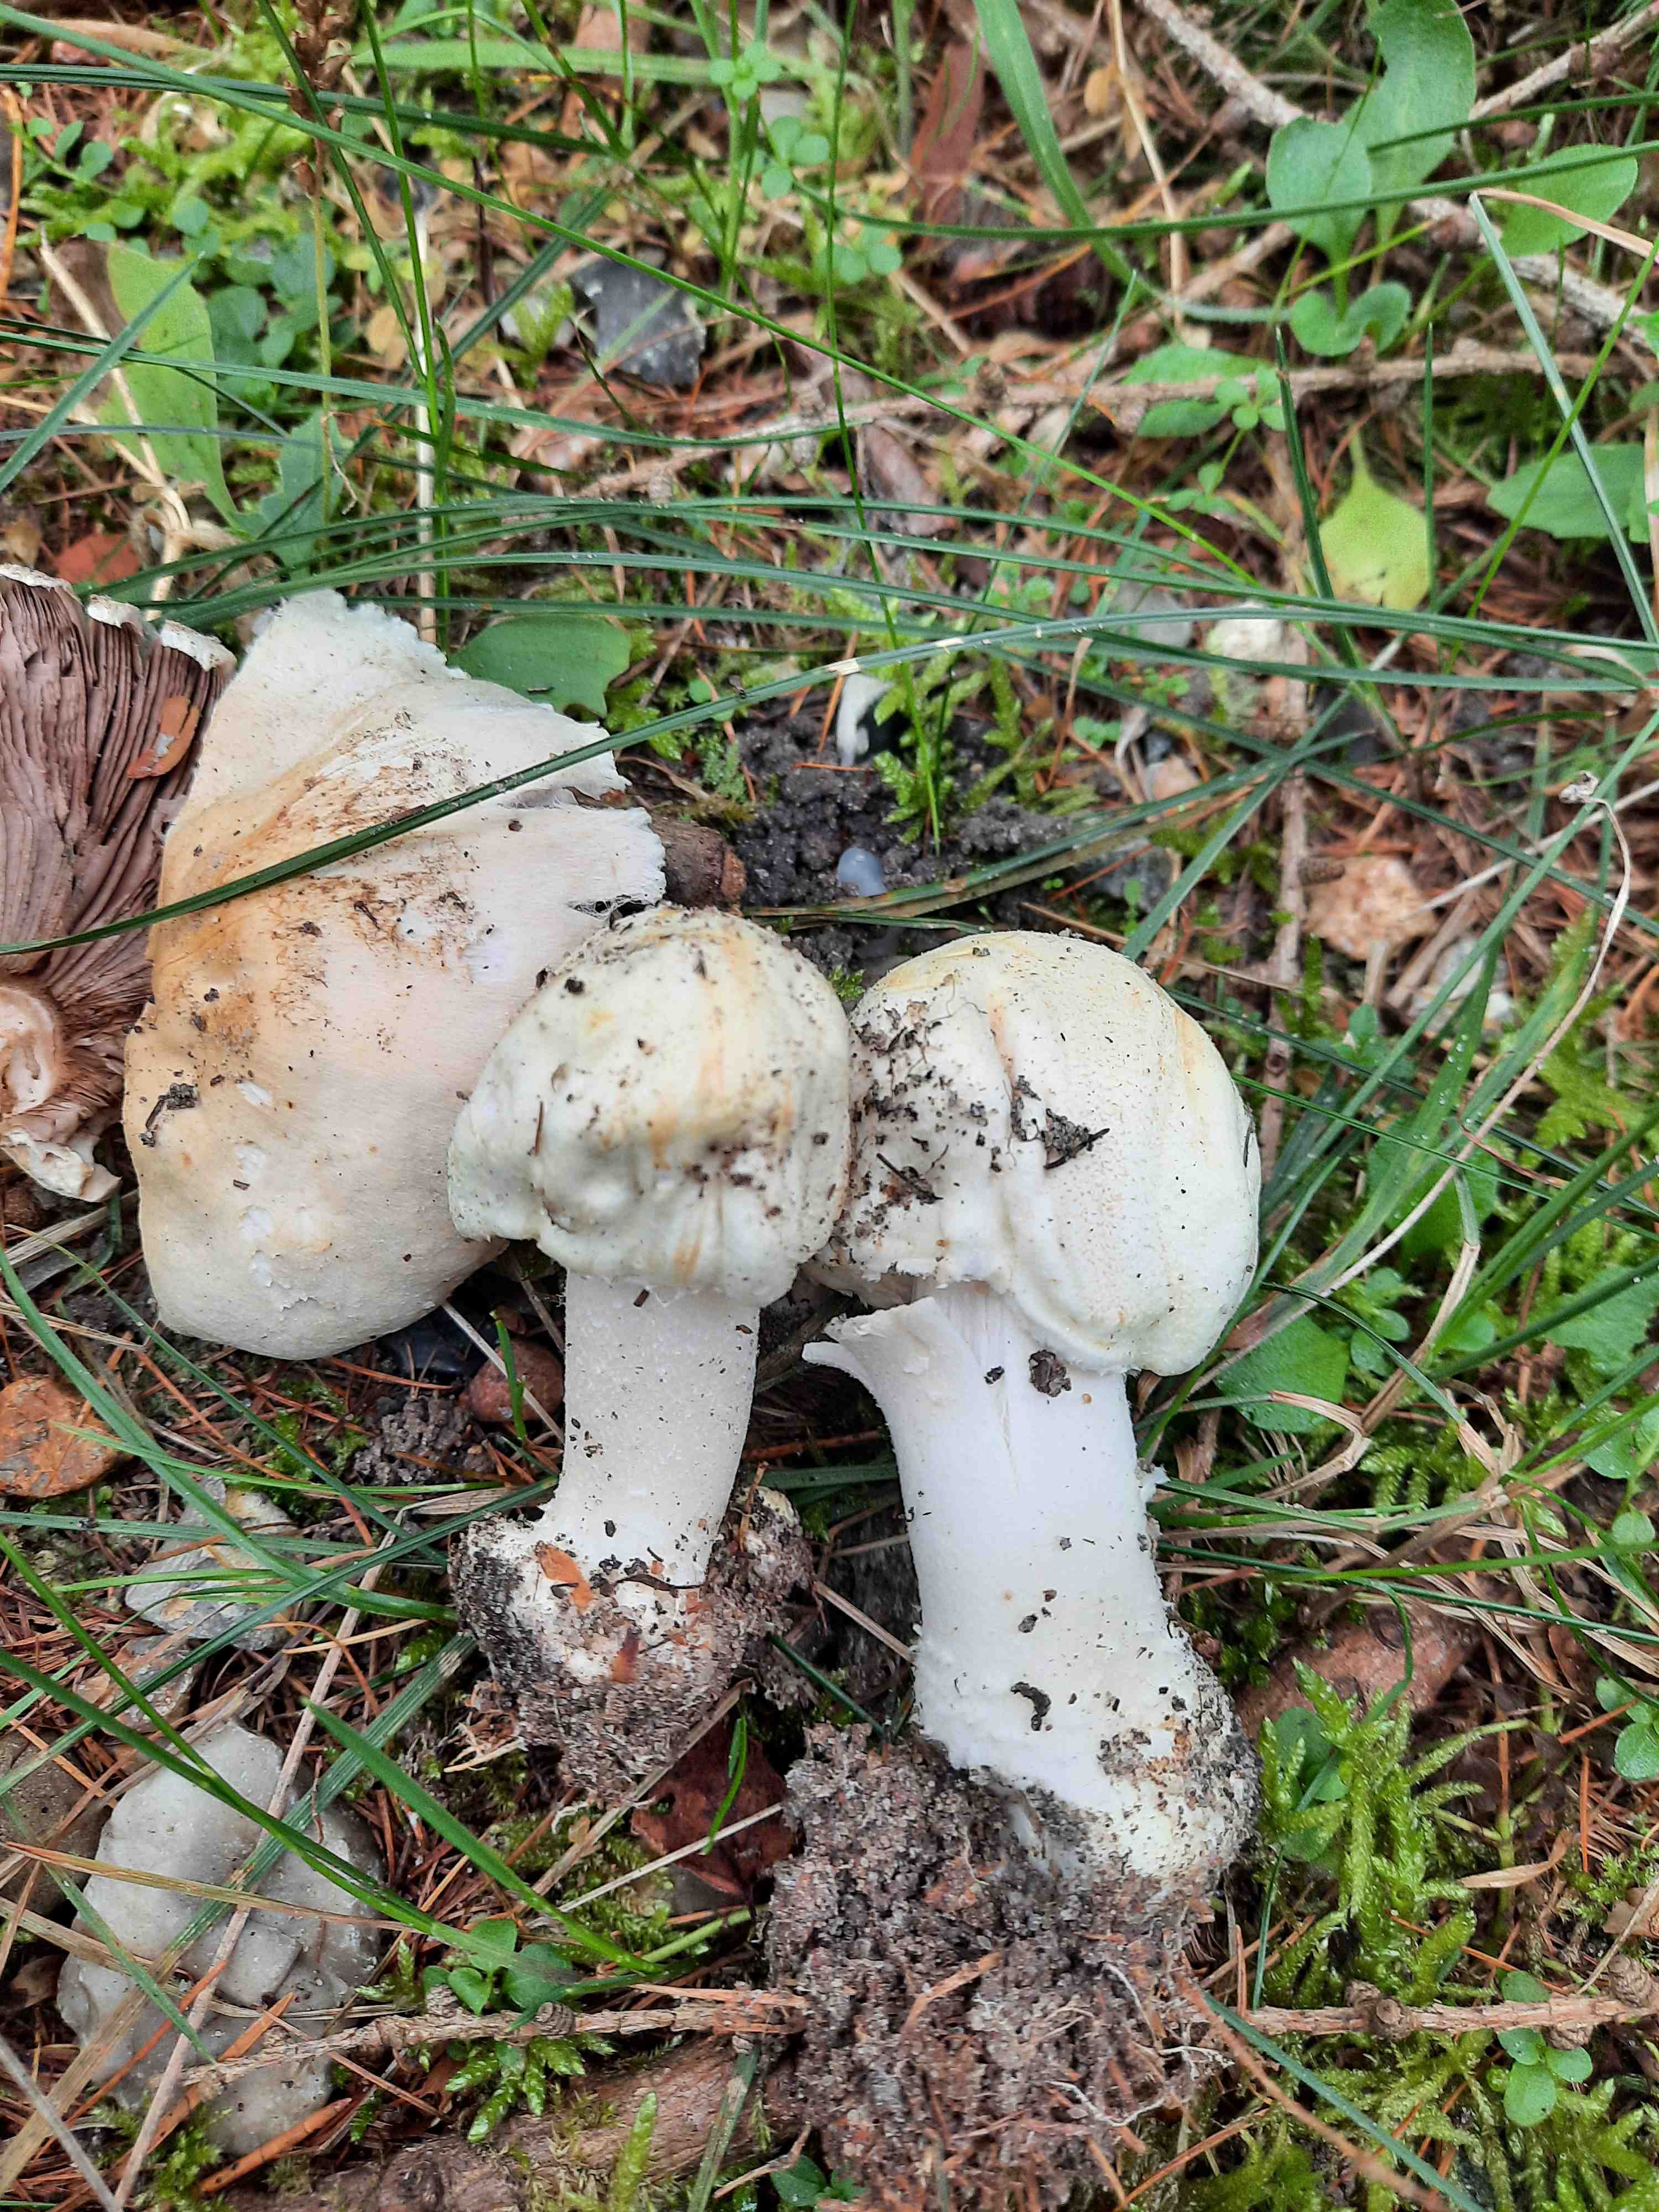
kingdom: Fungi
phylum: Basidiomycota
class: Agaricomycetes
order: Agaricales
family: Agaricaceae
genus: Agaricus
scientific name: Agaricus sylvicola
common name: gulhvid champignon
